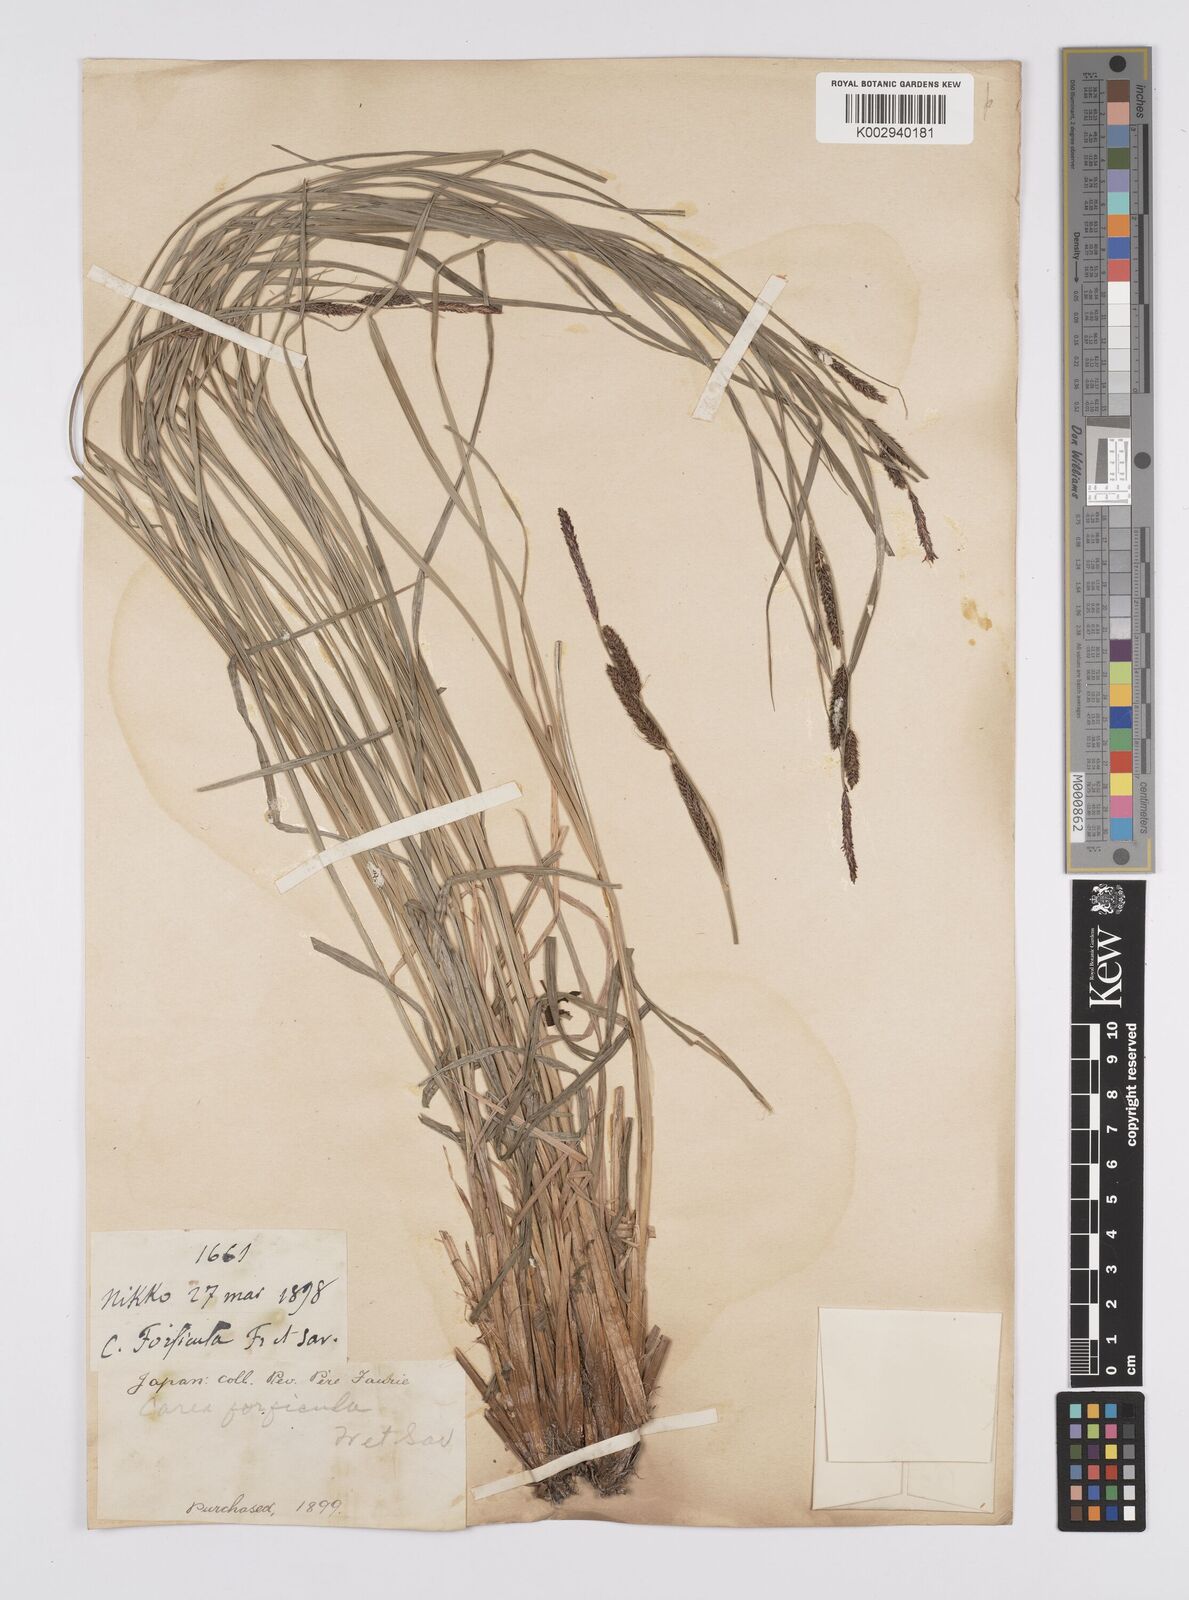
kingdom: Plantae
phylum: Tracheophyta
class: Liliopsida
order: Poales
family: Cyperaceae
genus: Carex
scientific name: Carex forficula
